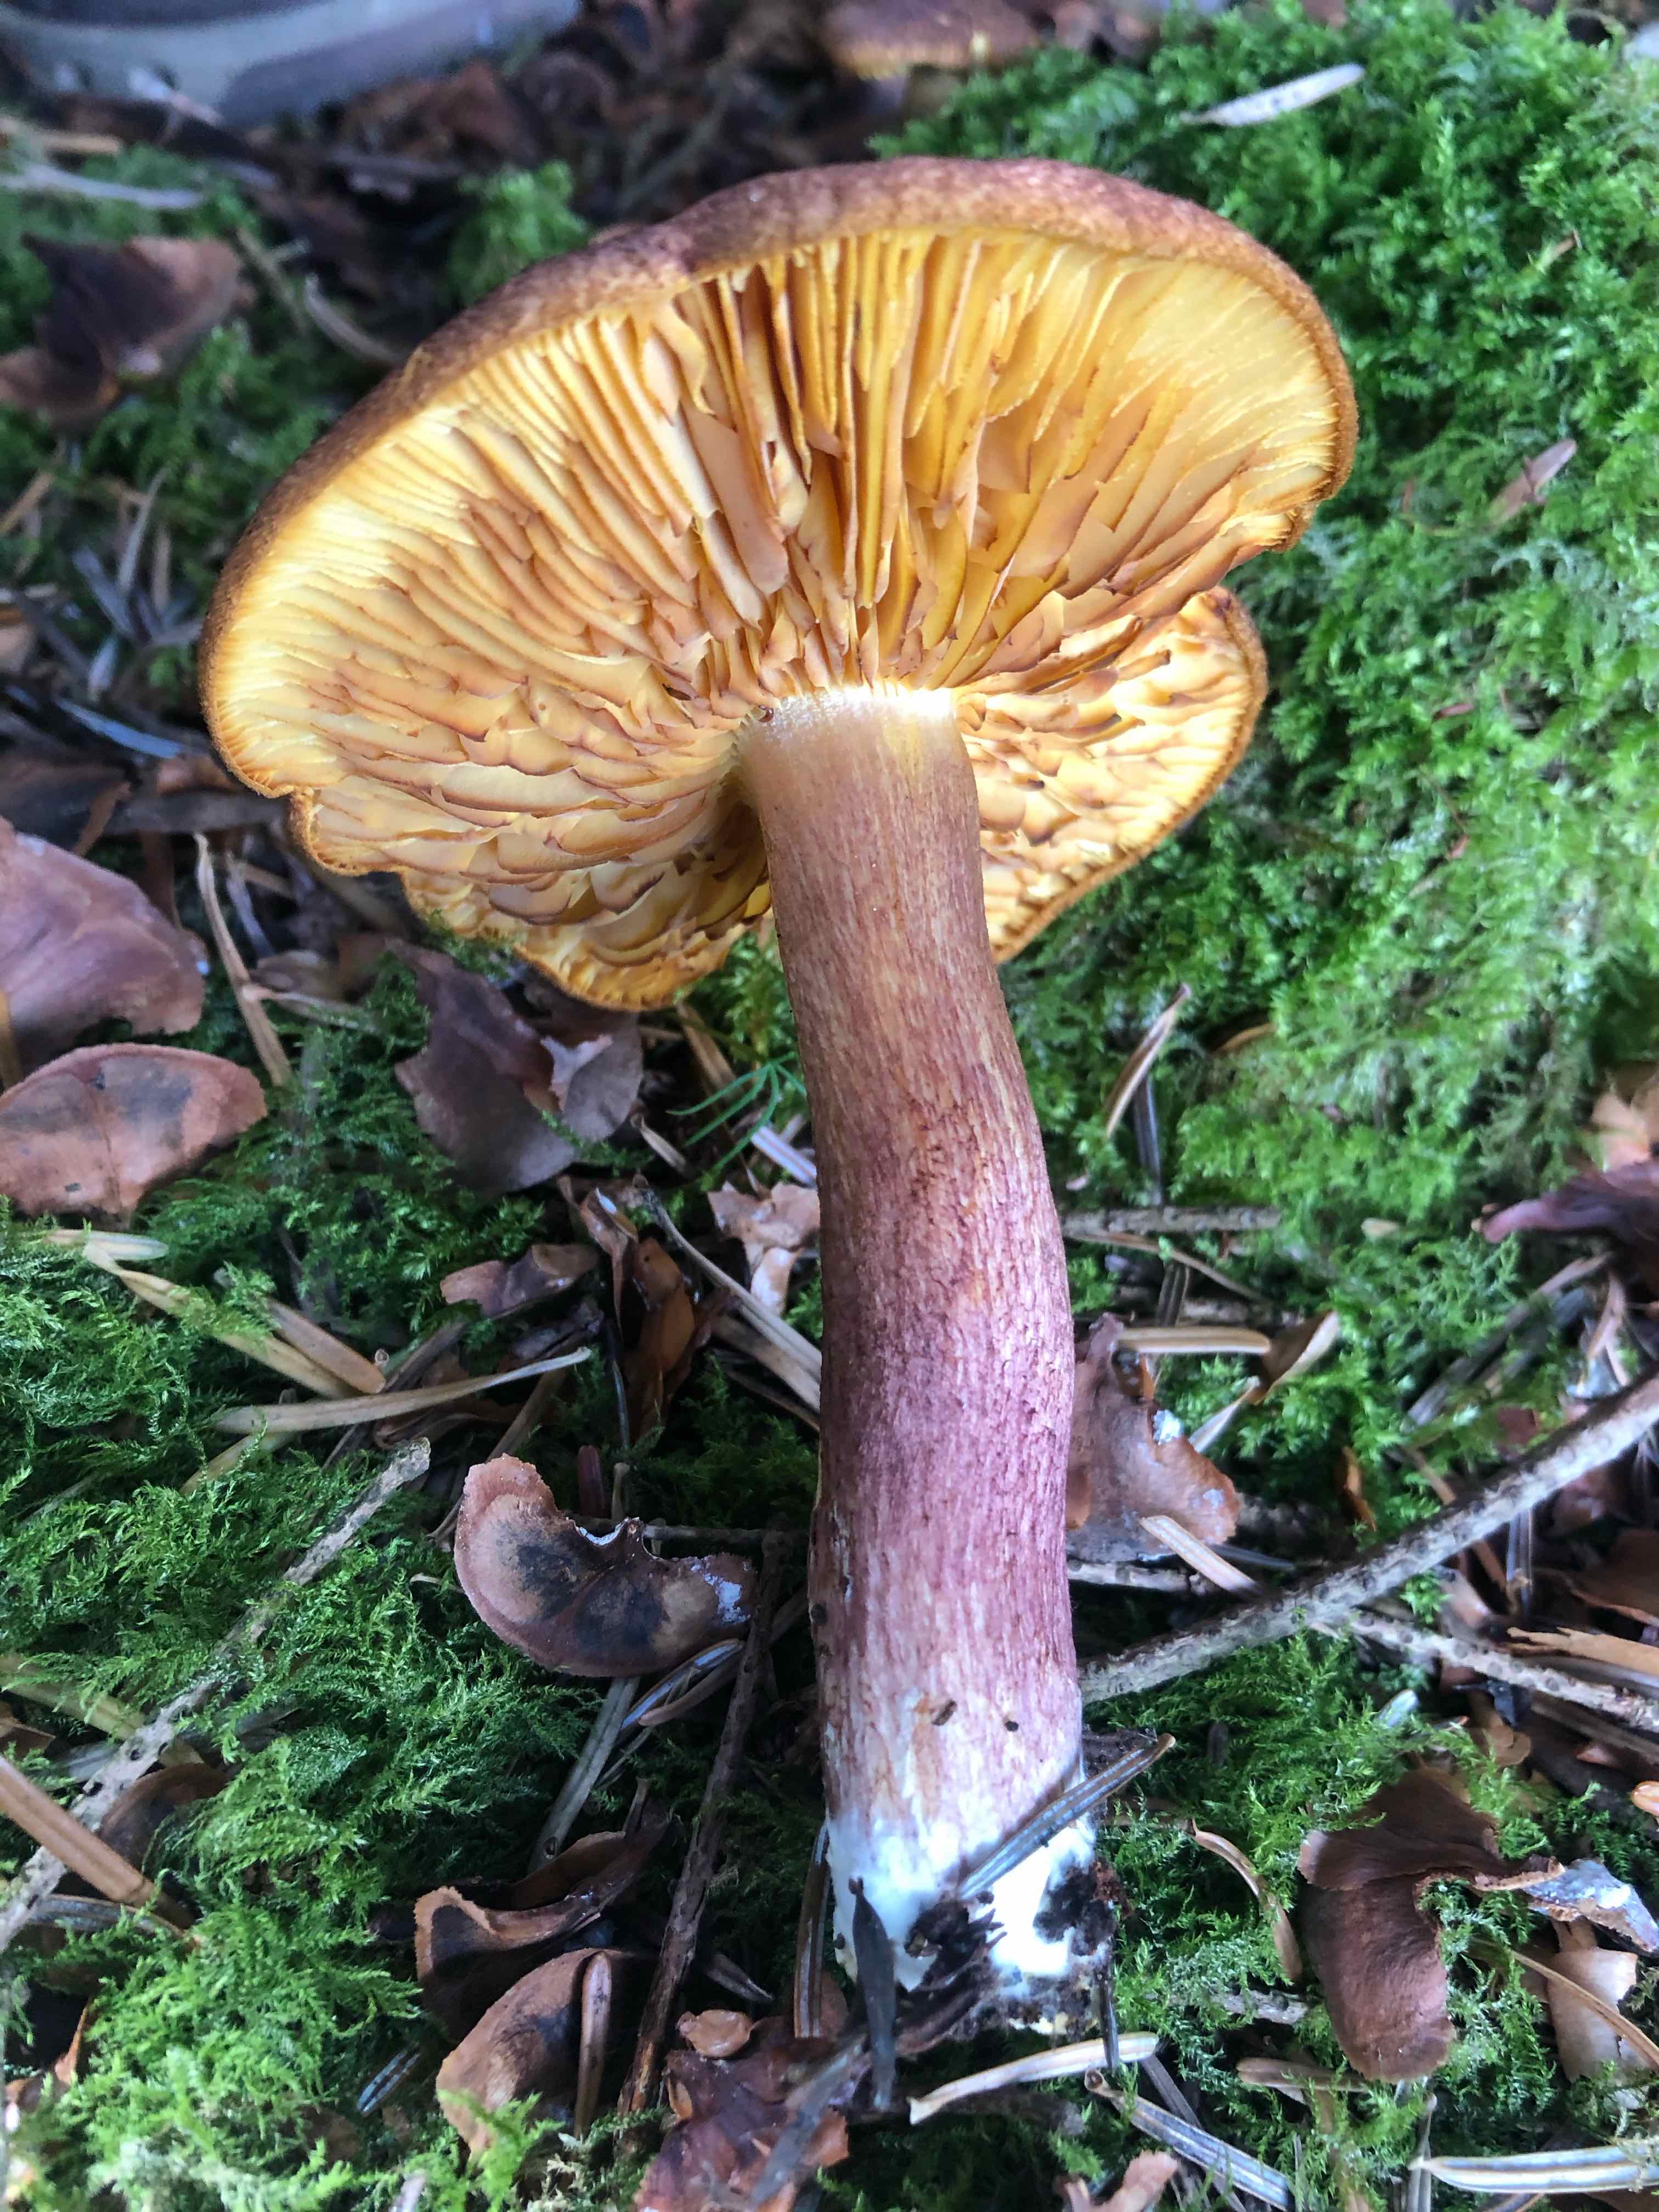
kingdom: Fungi
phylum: Basidiomycota
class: Agaricomycetes
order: Agaricales
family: Tricholomataceae
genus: Tricholomopsis
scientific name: Tricholomopsis rutilans
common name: purpur-væbnerhat
